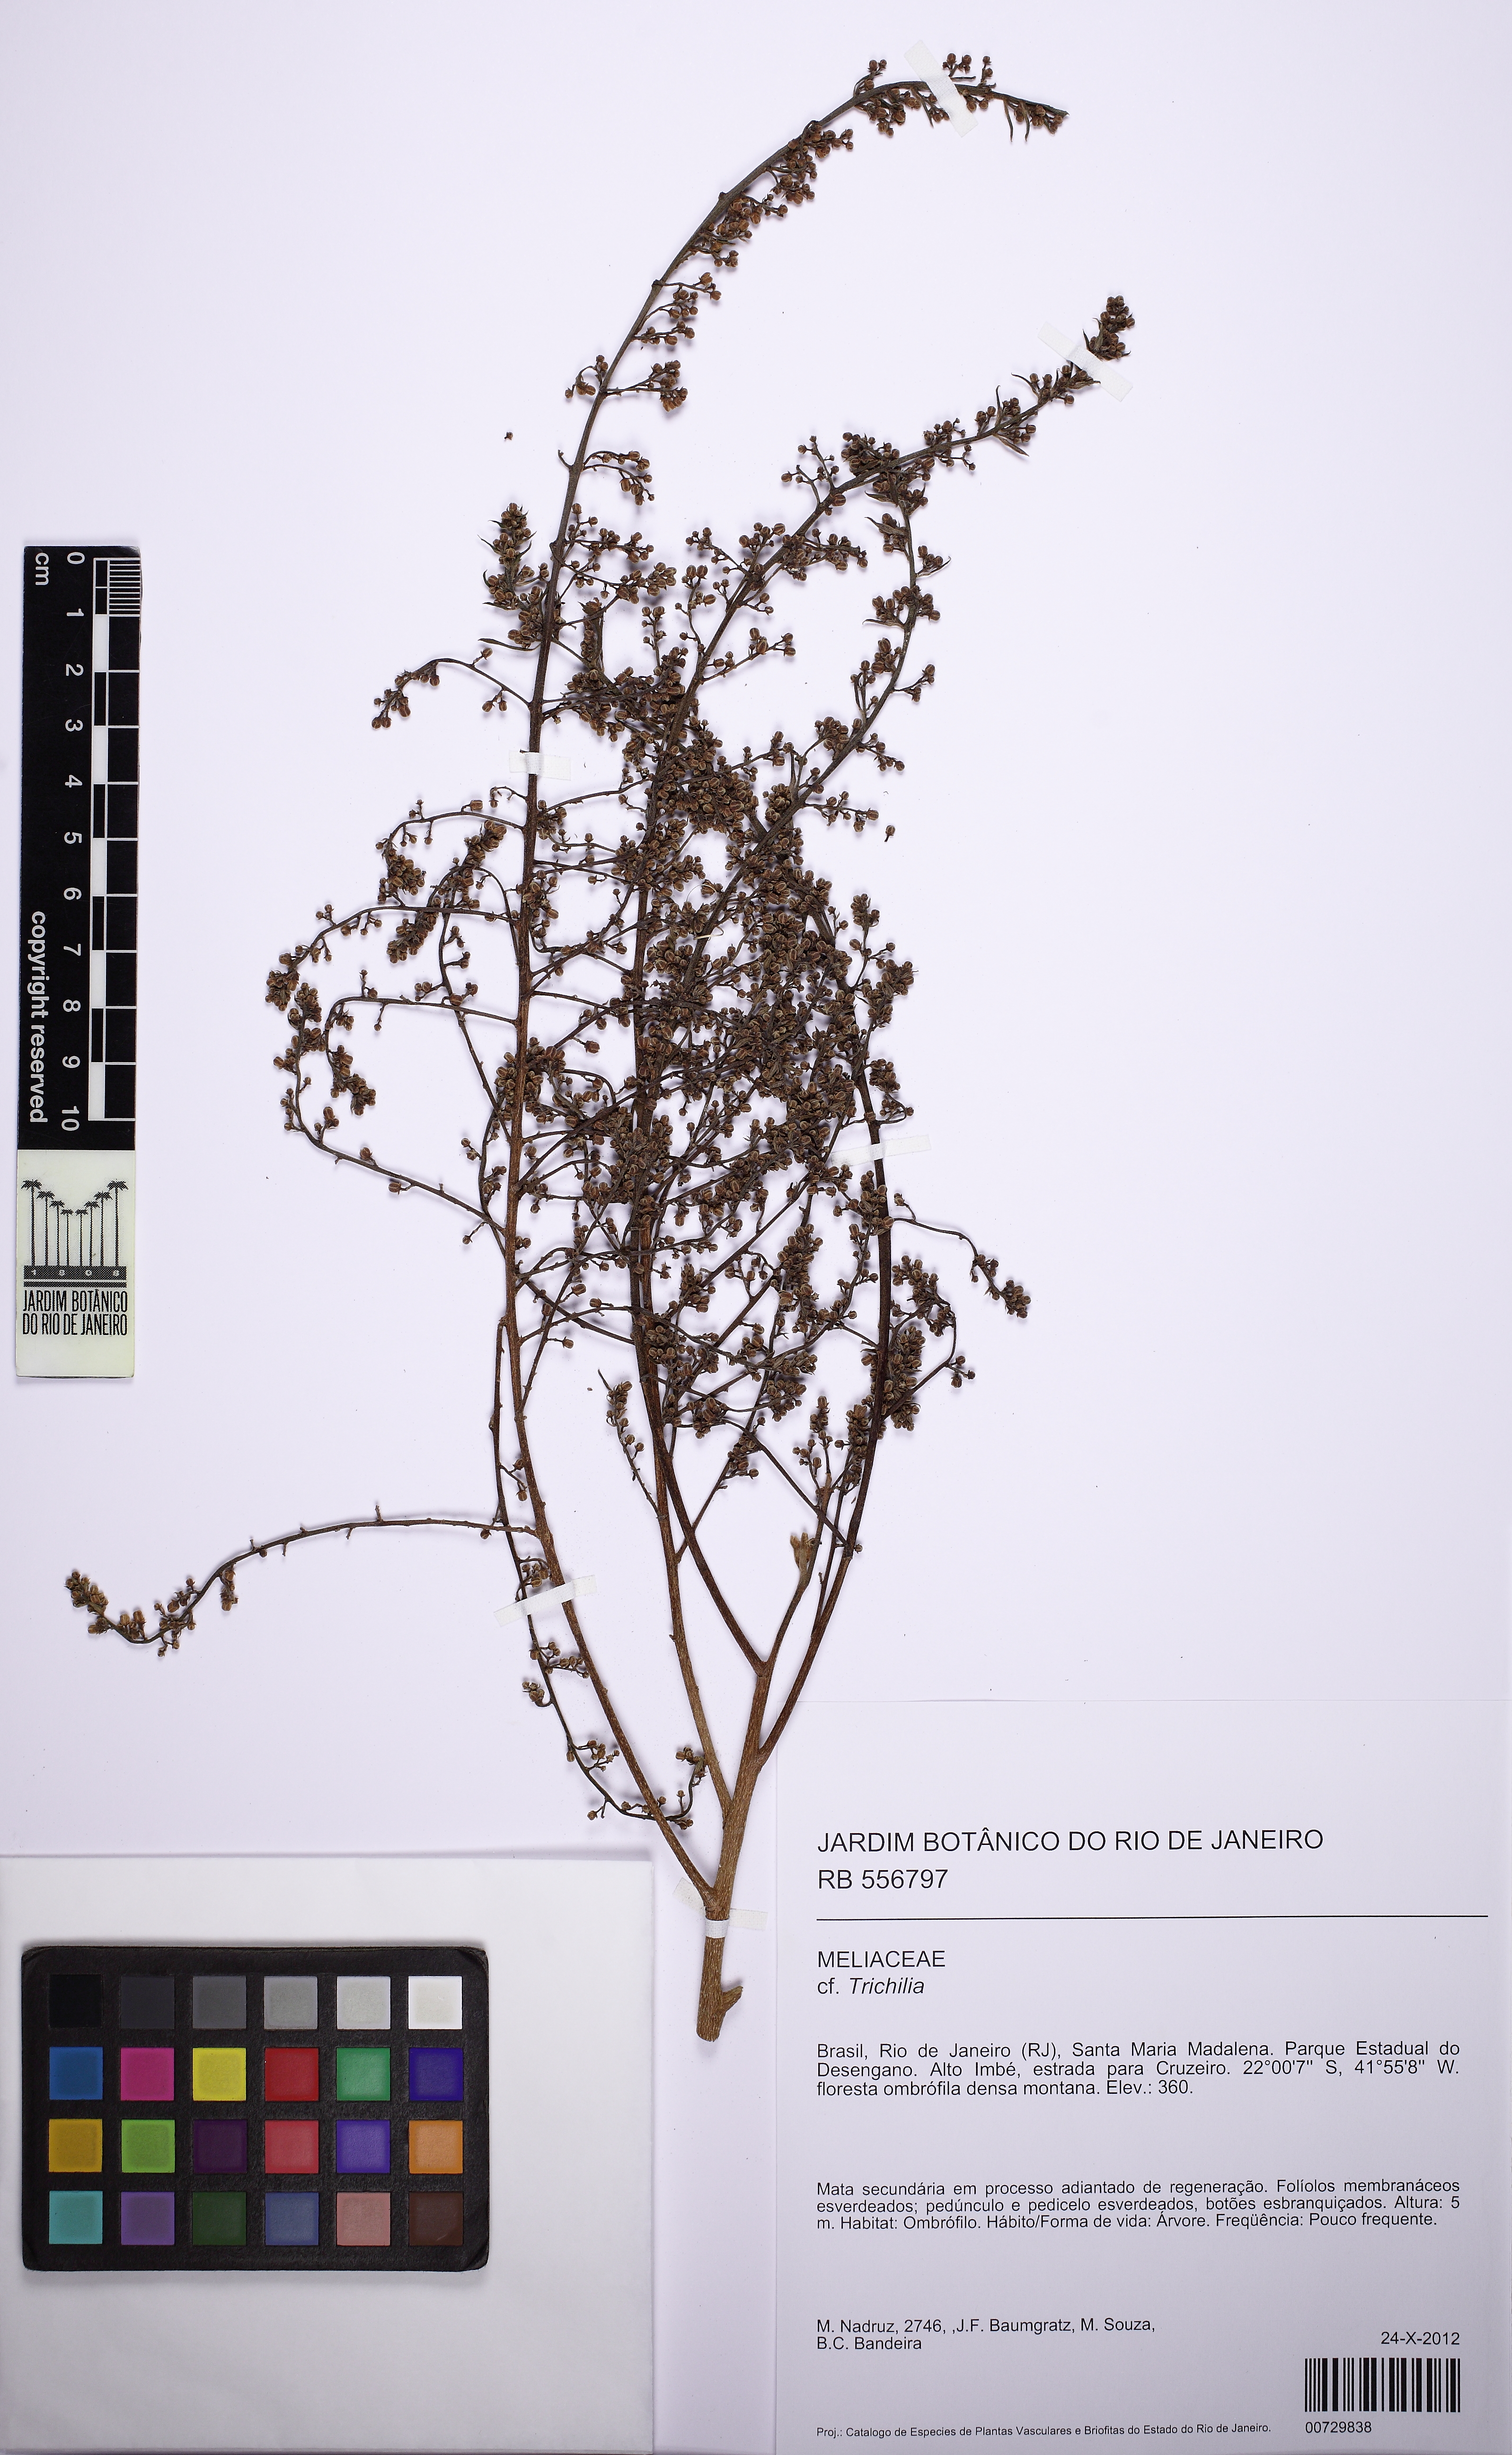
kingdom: Plantae
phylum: Tracheophyta
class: Magnoliopsida
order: Sapindales
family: Meliaceae
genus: Trichilia
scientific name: Trichilia
